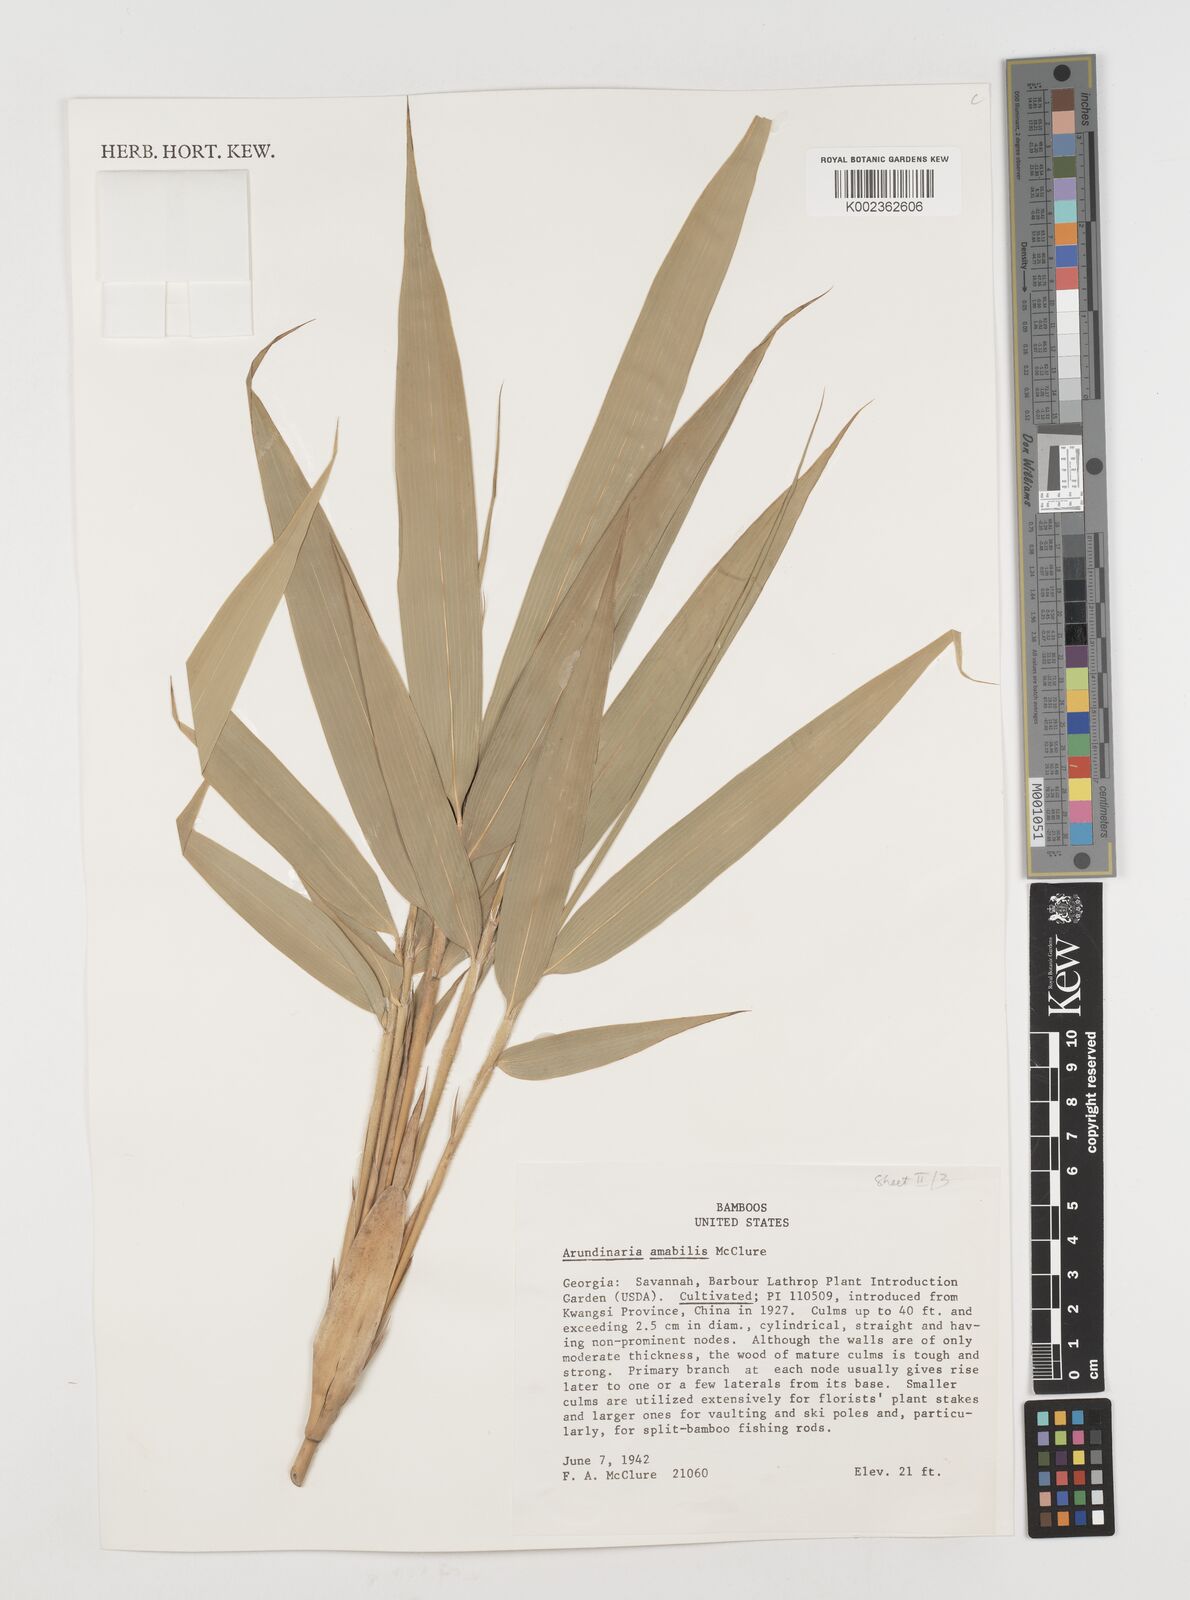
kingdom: Plantae
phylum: Tracheophyta
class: Liliopsida
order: Poales
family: Poaceae
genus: Pseudosasa
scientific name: Pseudosasa amabilis
